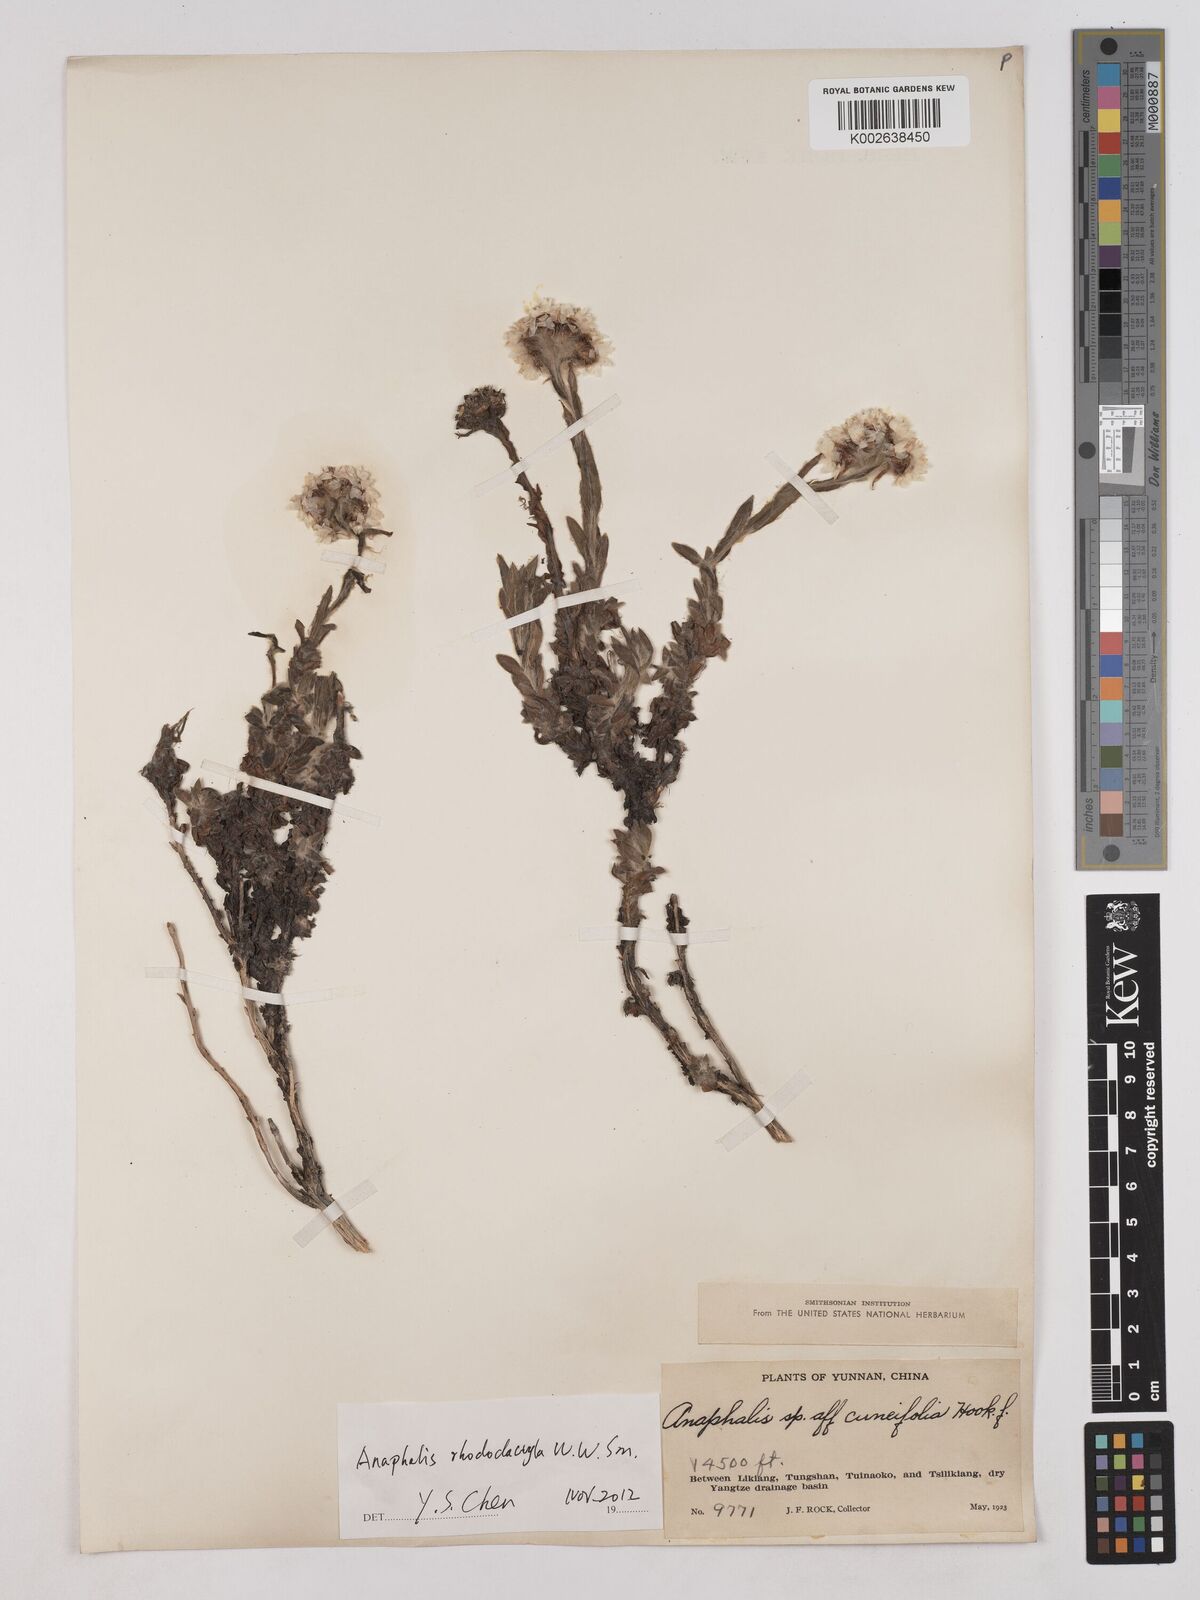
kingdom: Plantae
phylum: Tracheophyta
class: Magnoliopsida
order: Asterales
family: Asteraceae
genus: Anaphalis
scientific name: Anaphalis rhododactyla
